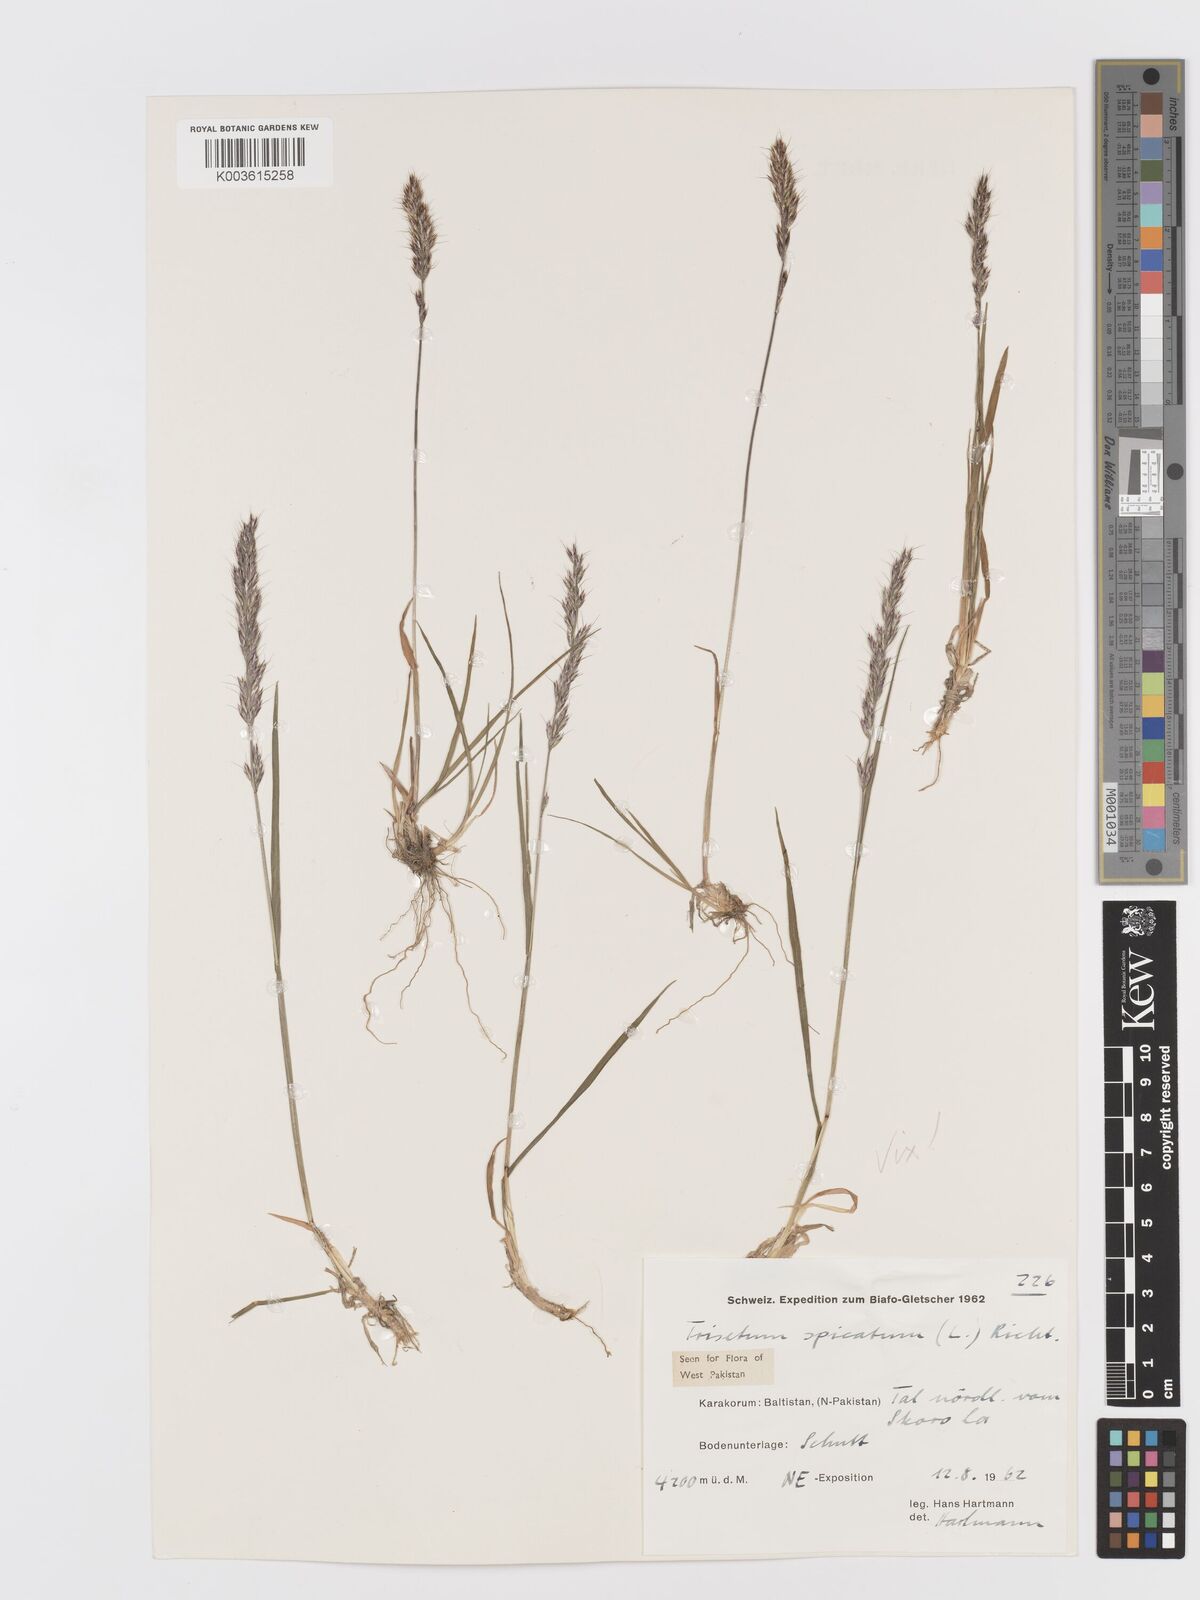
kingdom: Plantae
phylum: Tracheophyta
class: Liliopsida
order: Poales
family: Poaceae
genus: Koeleria
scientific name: Koeleria spicata
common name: Mountain trisetum
